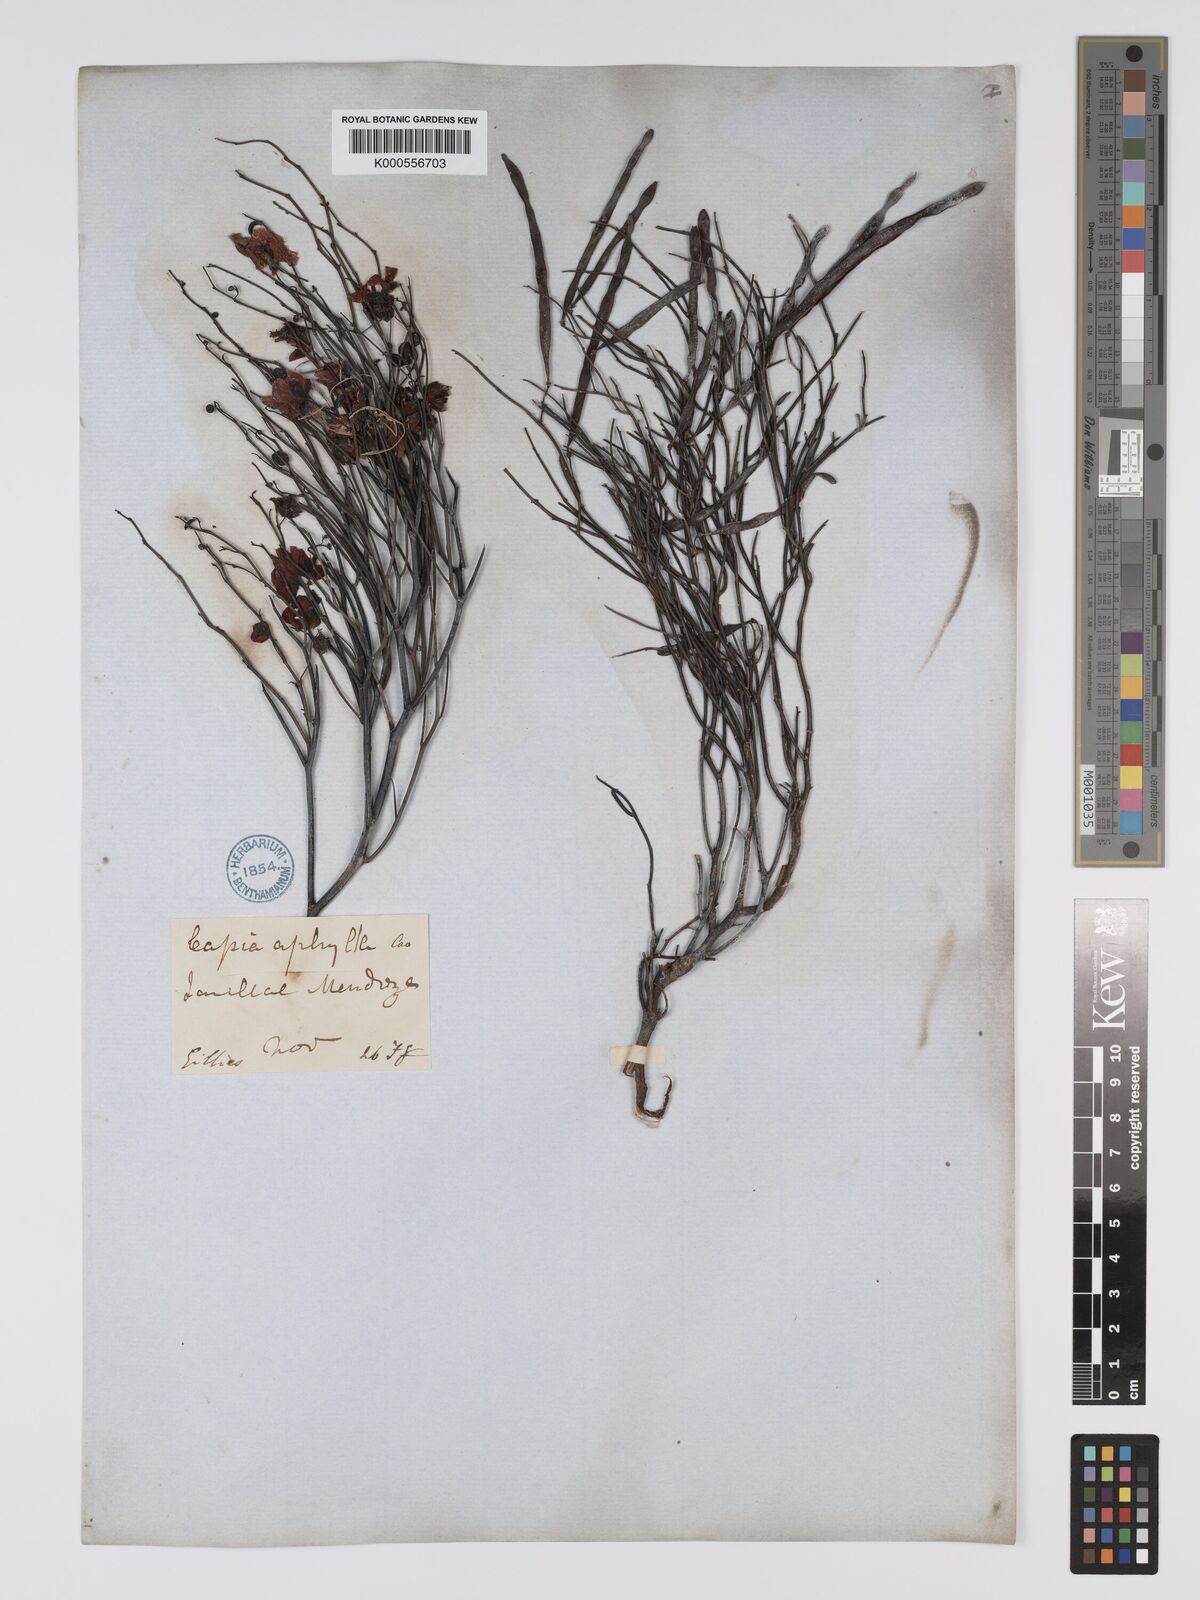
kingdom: Plantae
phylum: Tracheophyta
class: Magnoliopsida
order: Fabales
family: Fabaceae
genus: Senna
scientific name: Senna aphylla
